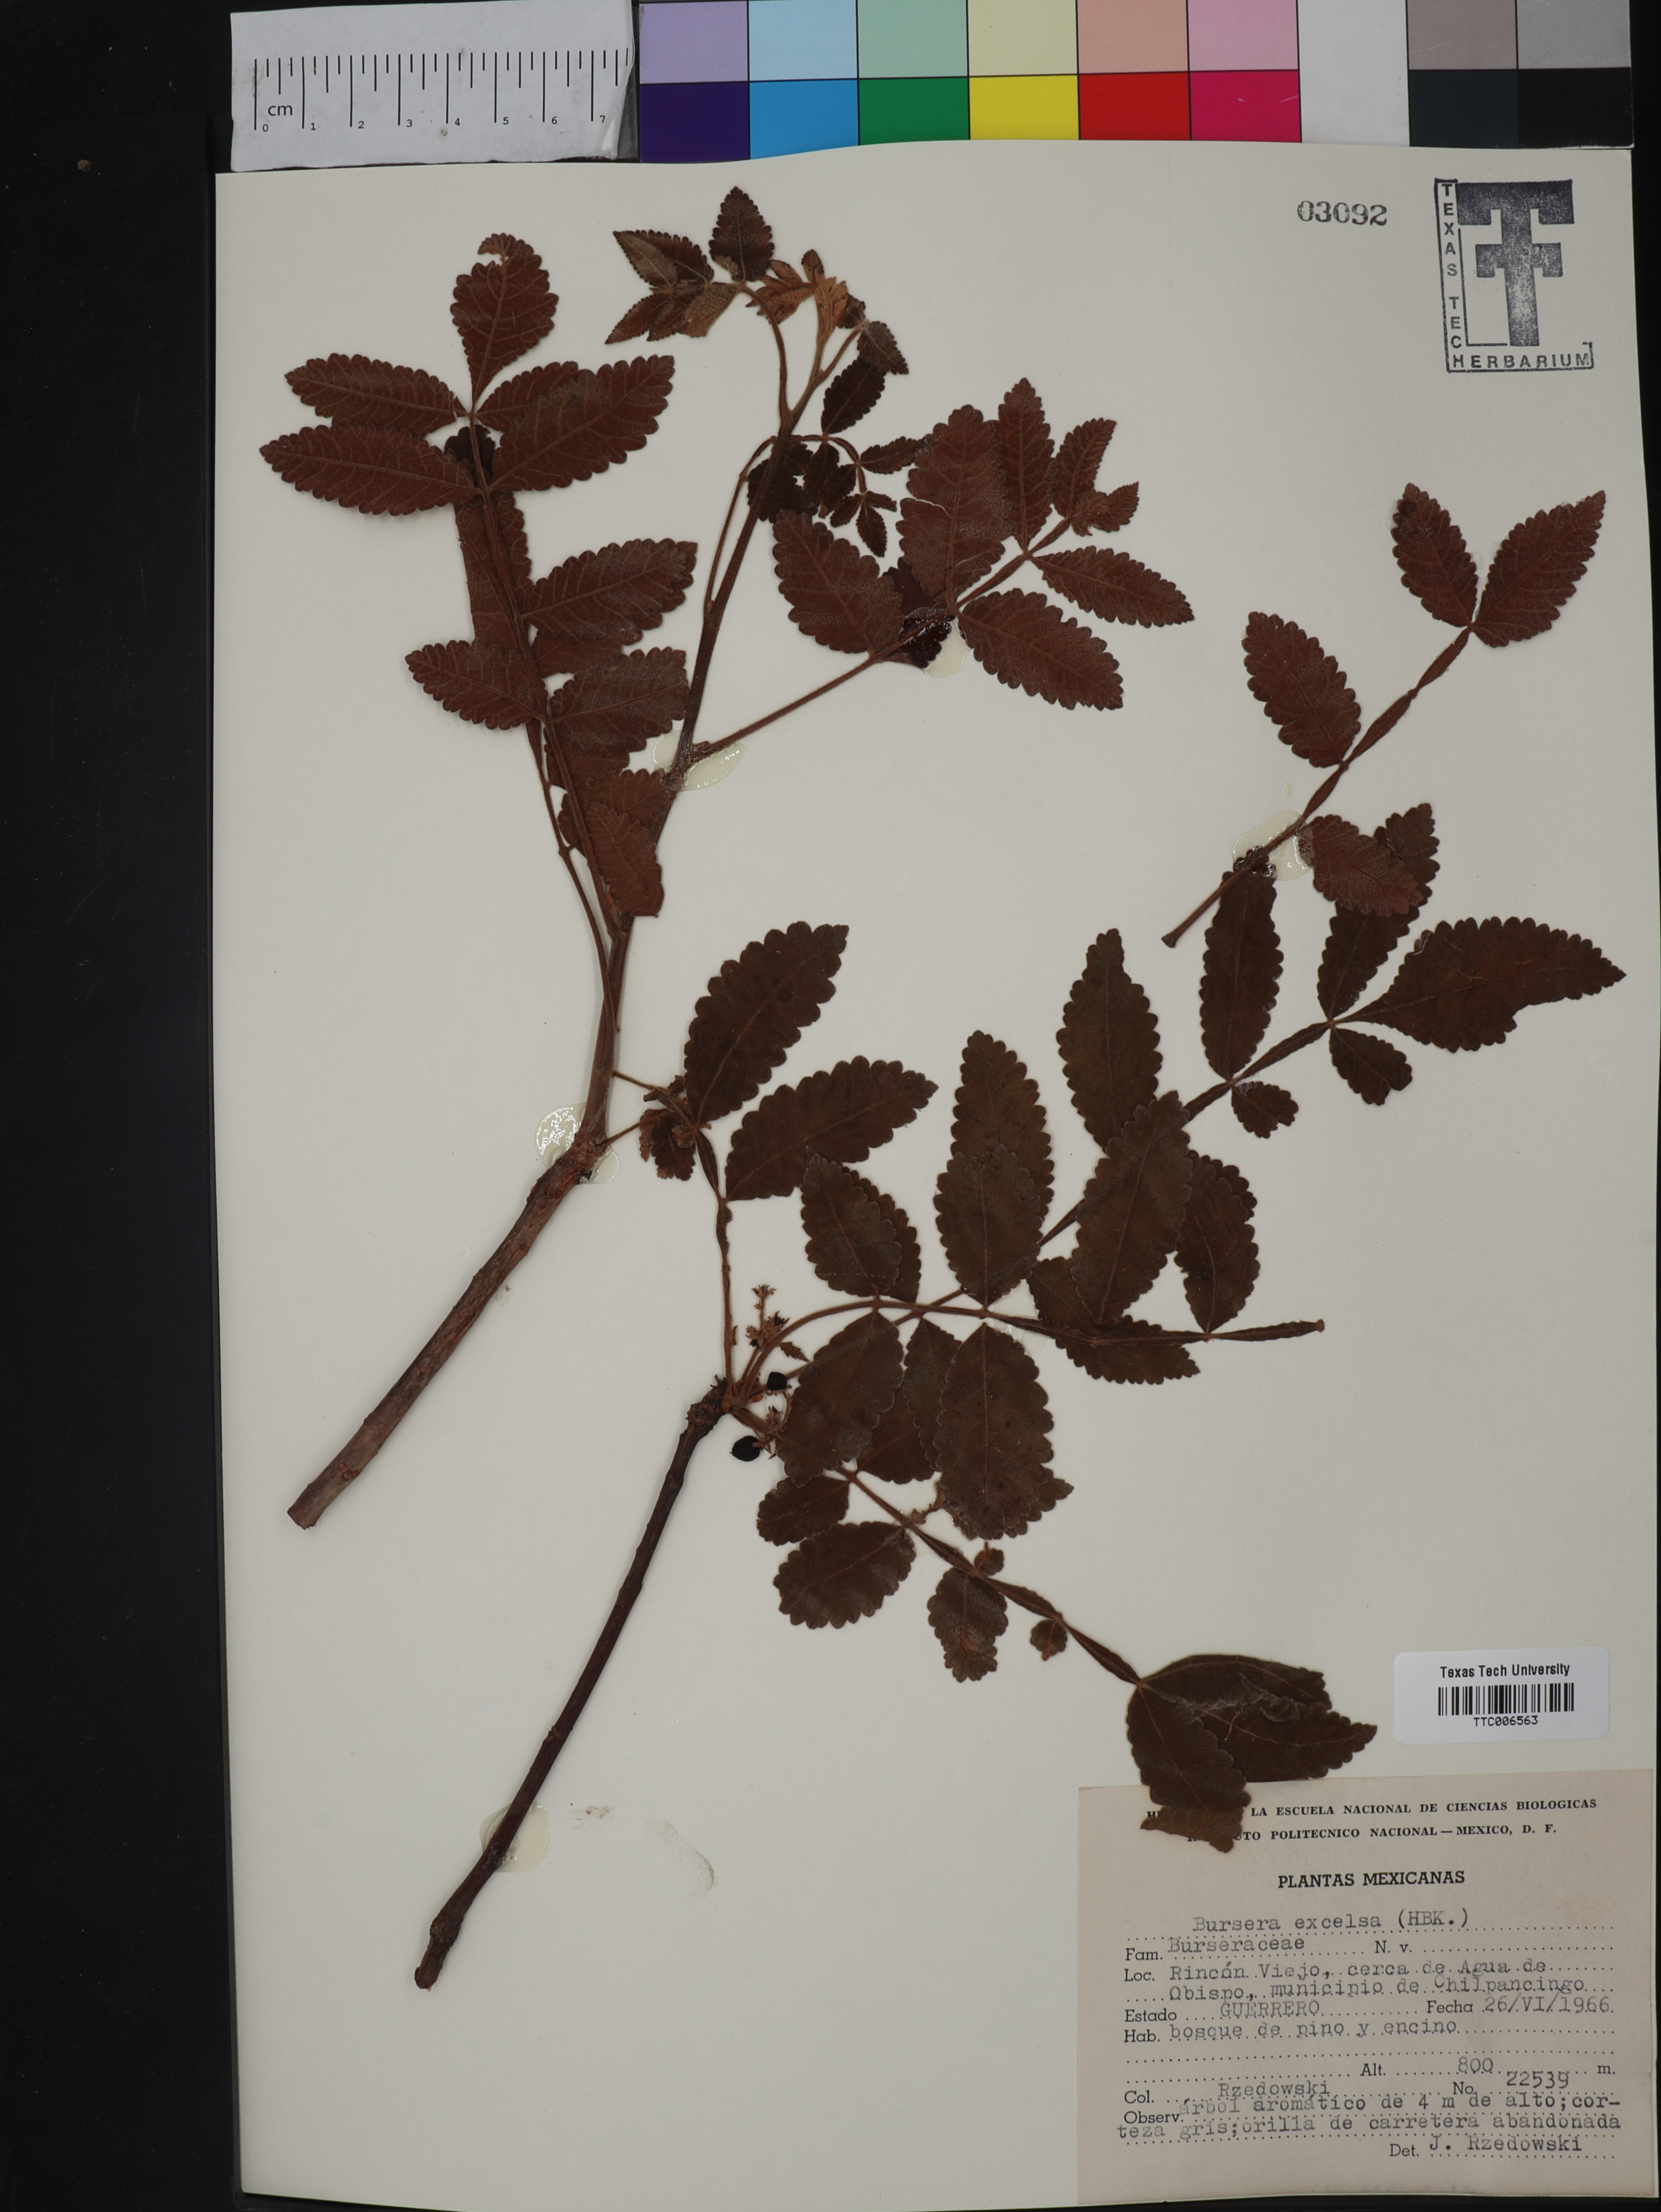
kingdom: Plantae
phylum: Tracheophyta
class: Magnoliopsida
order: Sapindales
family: Burseraceae
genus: Bursera
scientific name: Bursera excelsa
